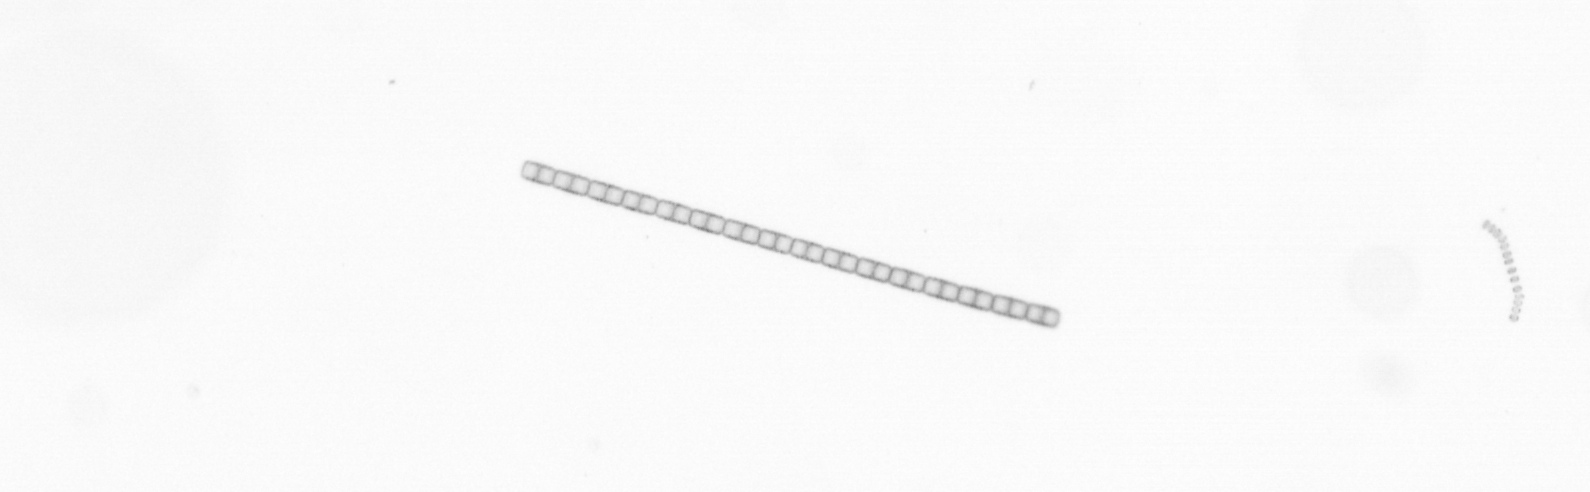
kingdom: Chromista
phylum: Ochrophyta
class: Bacillariophyceae
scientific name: Bacillariophyceae
